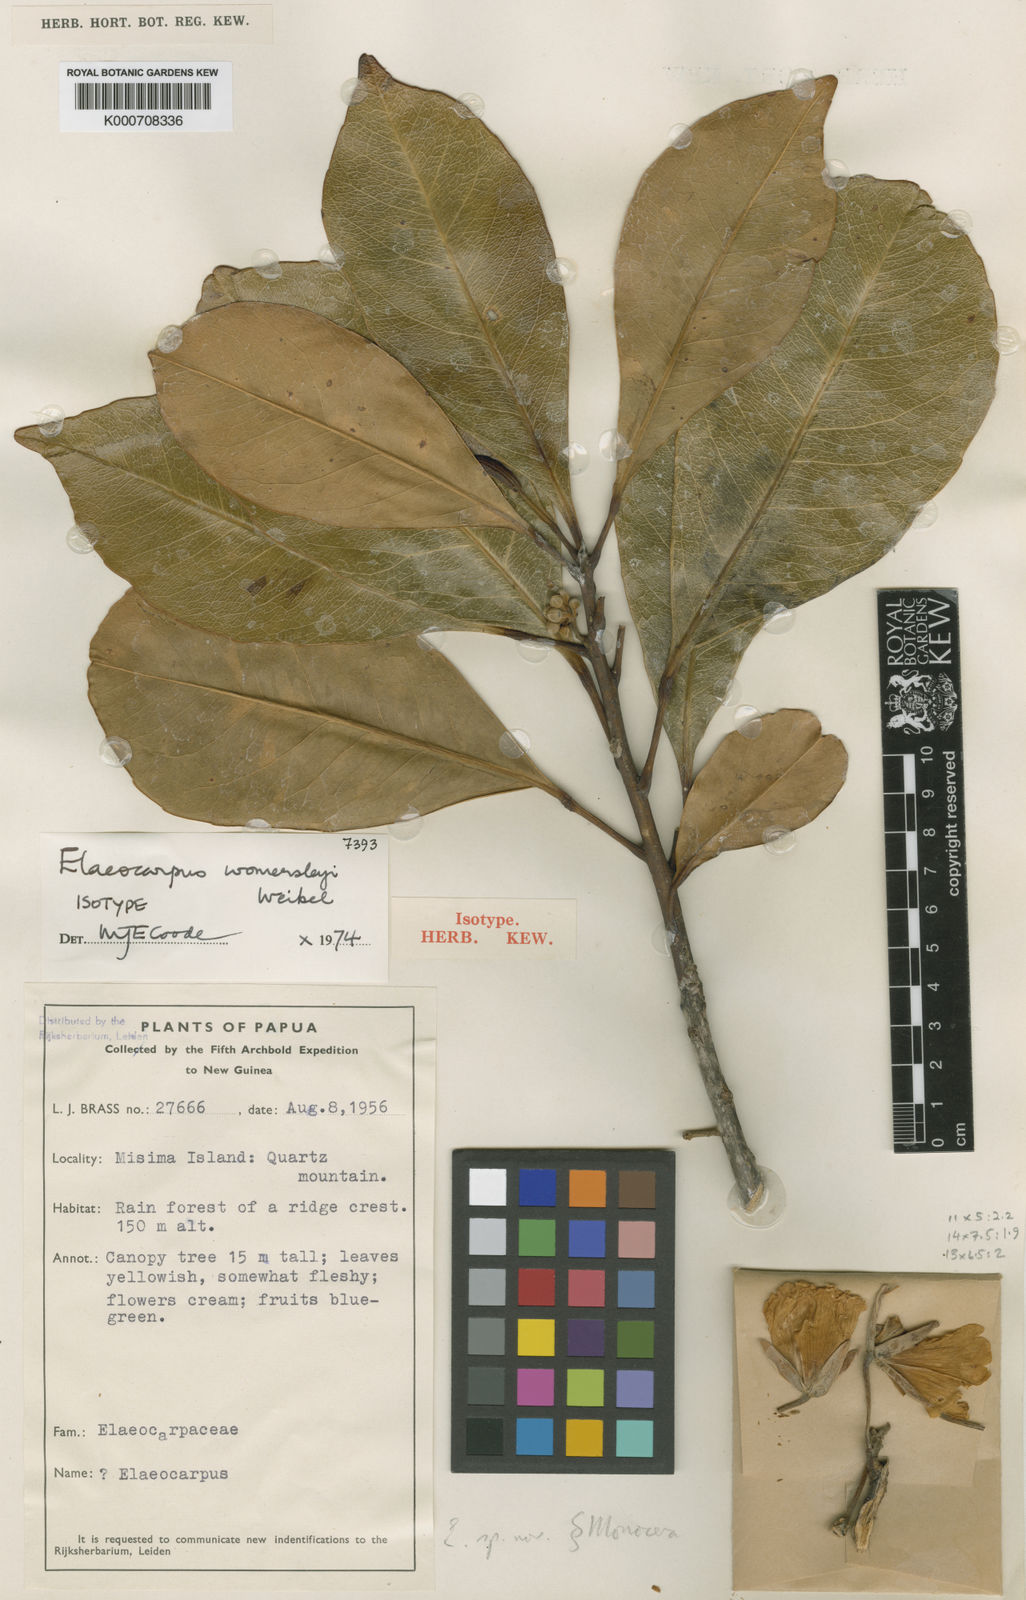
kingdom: Plantae
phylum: Tracheophyta
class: Magnoliopsida
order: Oxalidales
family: Elaeocarpaceae
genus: Elaeocarpus
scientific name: Elaeocarpus womersleyi
